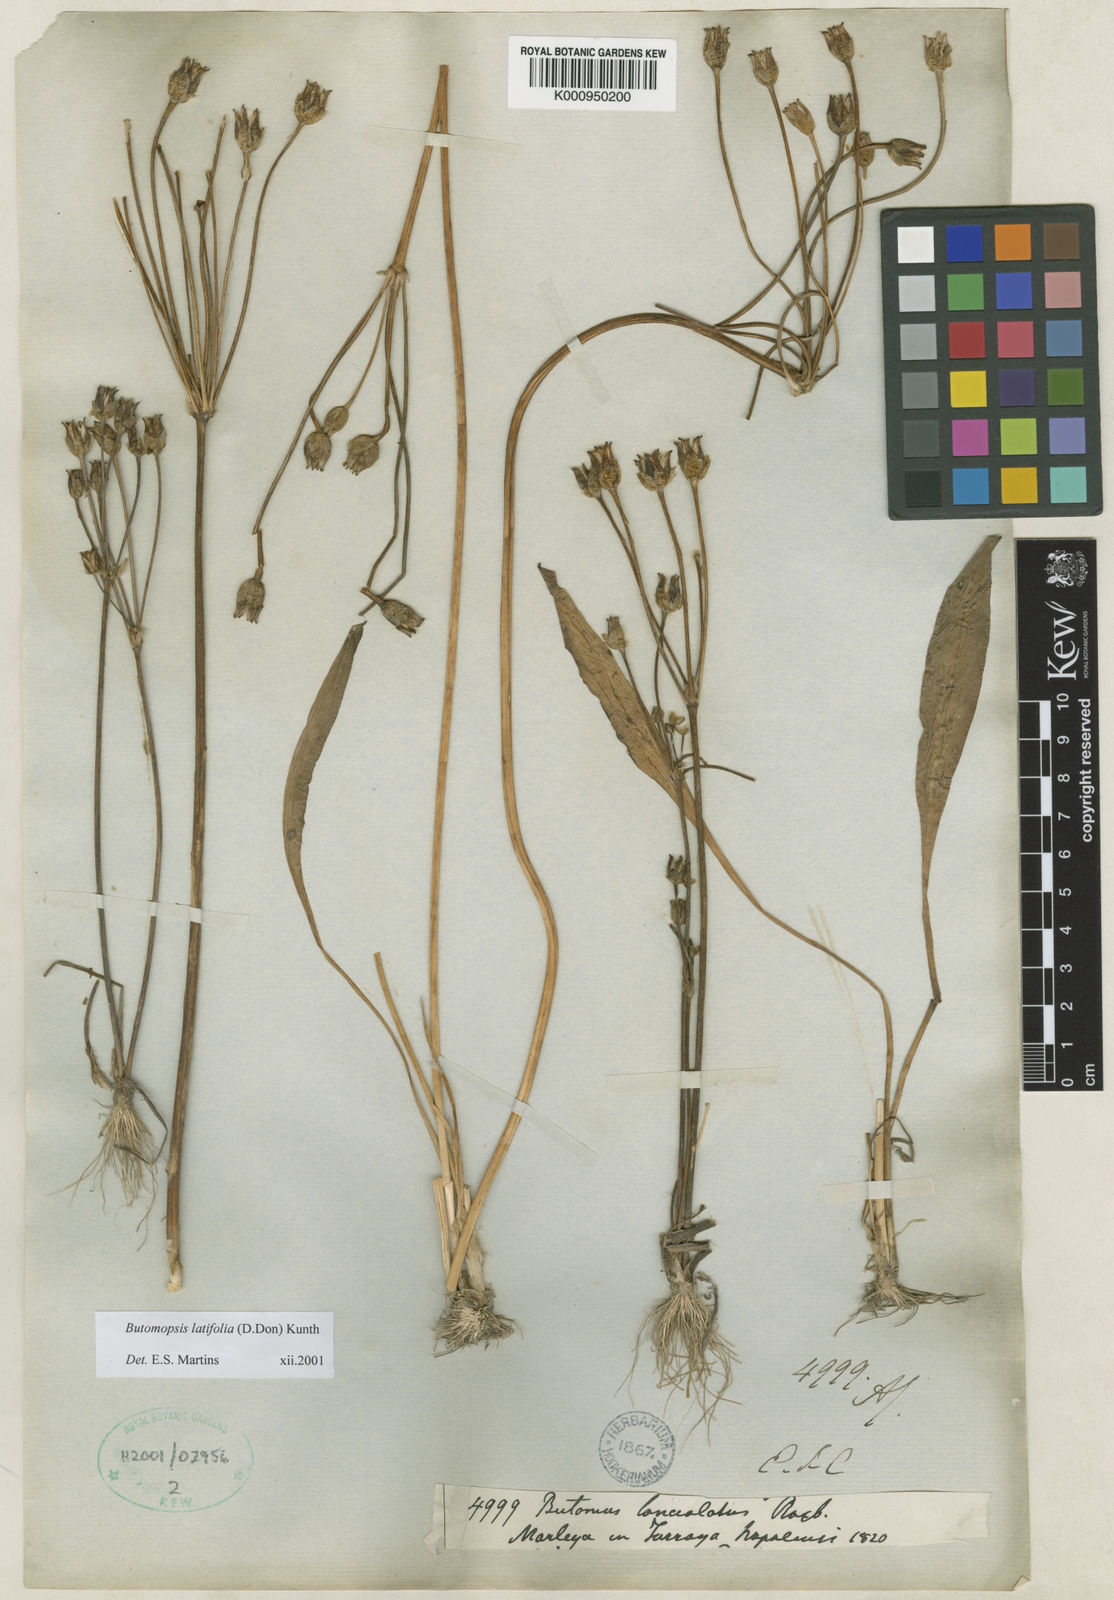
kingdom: Plantae
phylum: Tracheophyta
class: Liliopsida
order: Alismatales
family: Alismataceae
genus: Butomopsis
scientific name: Butomopsis latifolia
